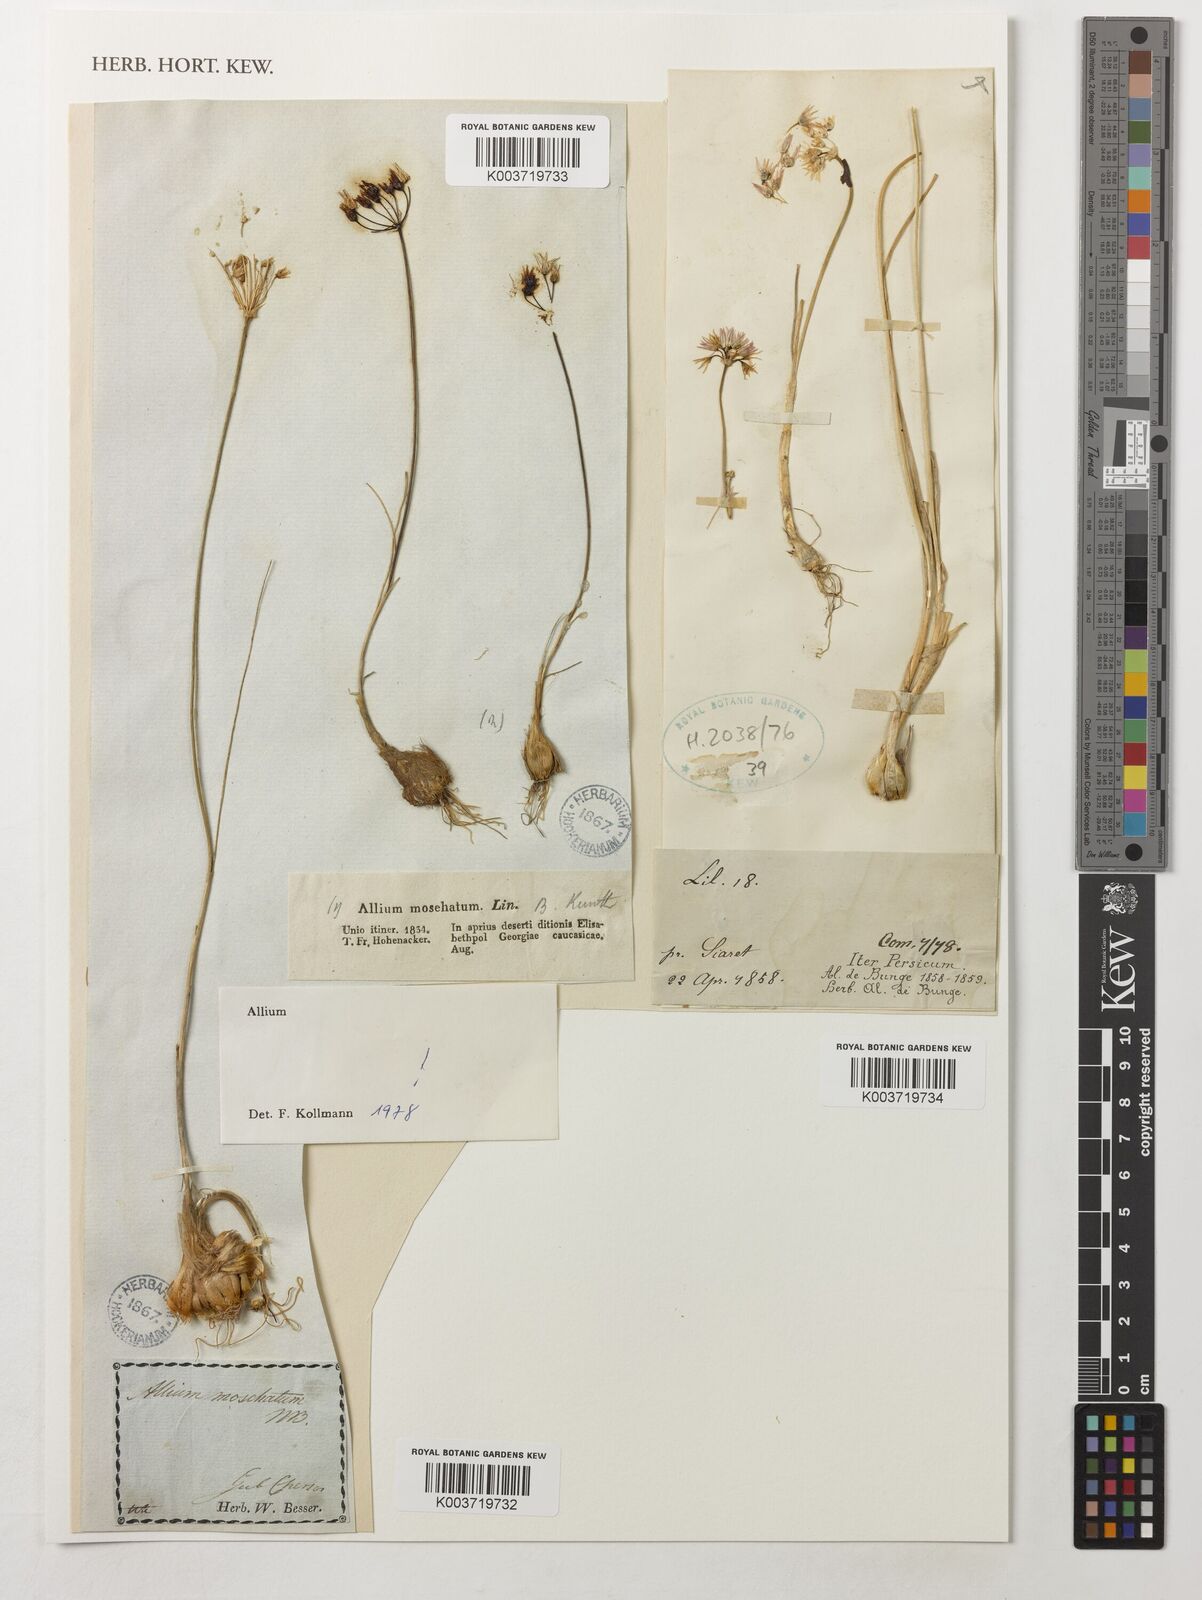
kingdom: Plantae
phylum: Tracheophyta
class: Liliopsida
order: Asparagales
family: Amaryllidaceae
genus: Allium
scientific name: Allium
